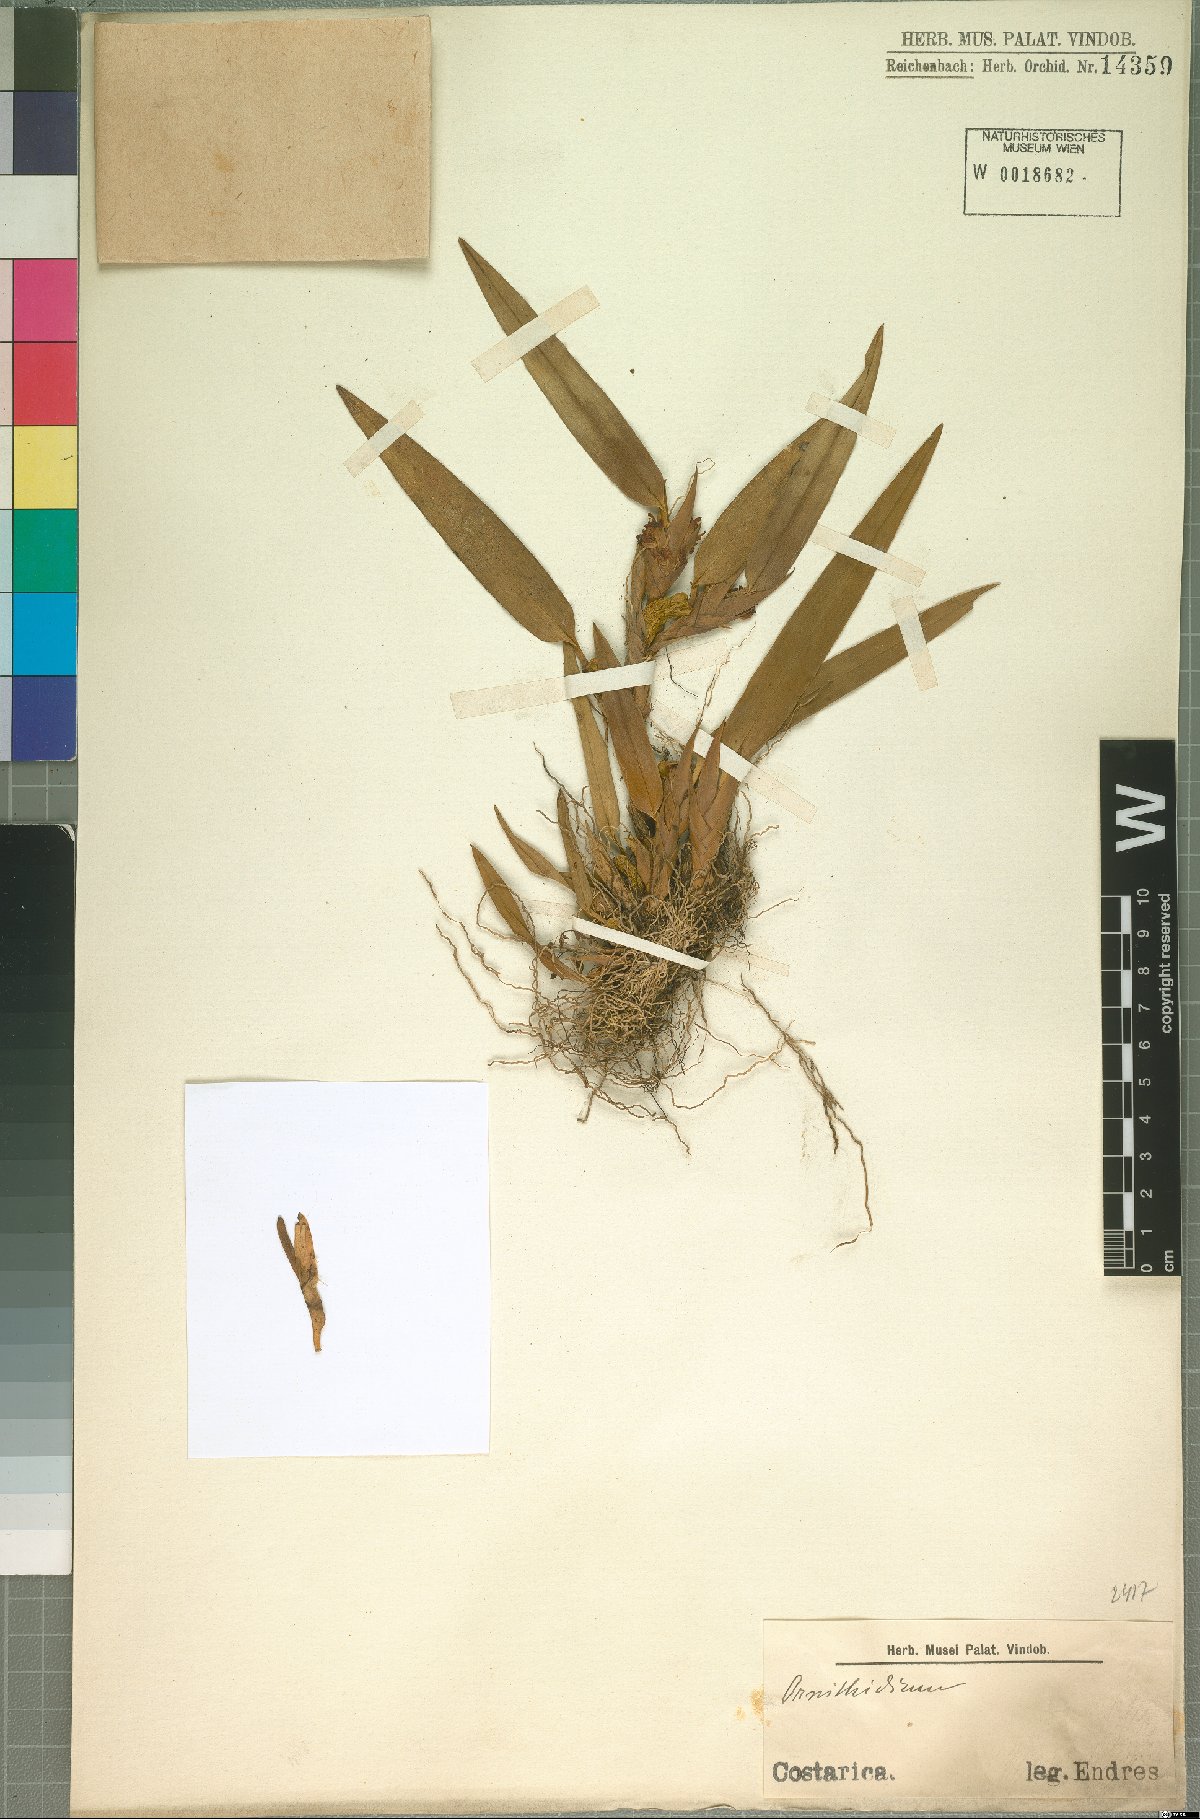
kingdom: Plantae
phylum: Tracheophyta
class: Liliopsida
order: Asparagales
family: Orchidaceae
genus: Maxillaria
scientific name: Maxillaria
